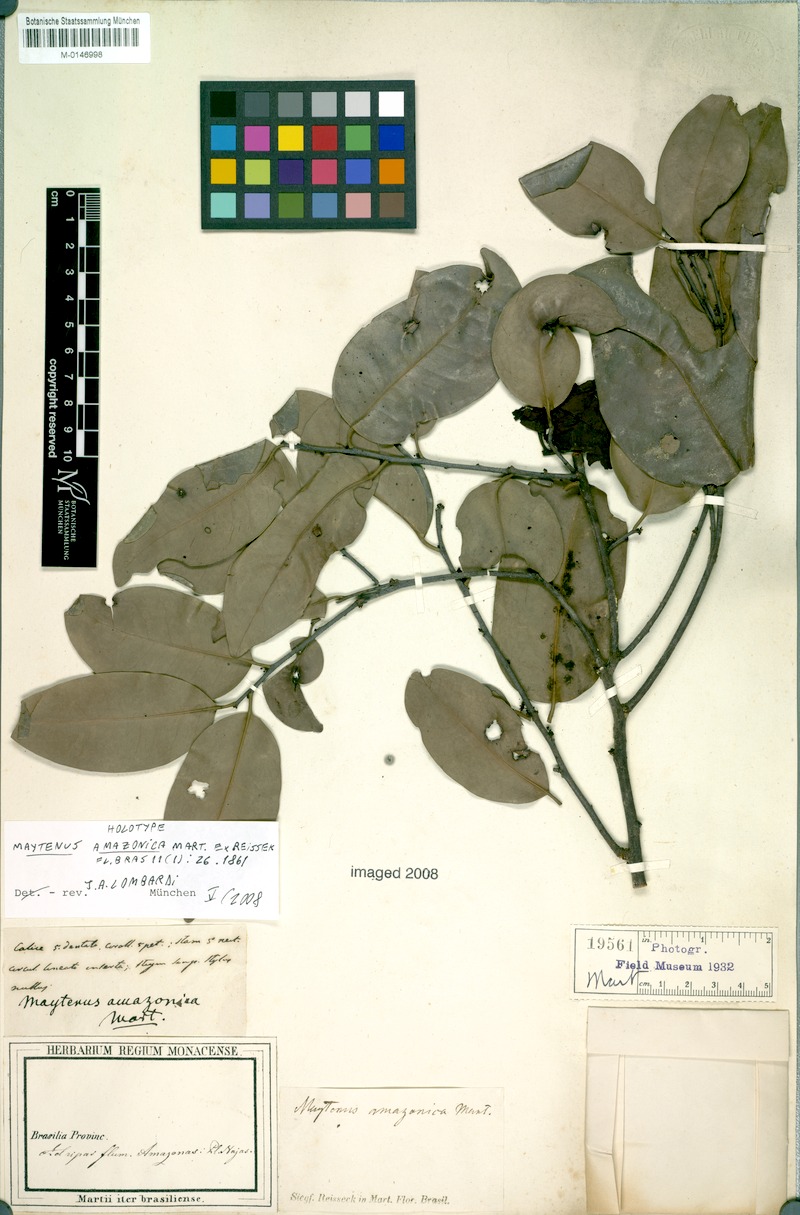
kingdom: Plantae
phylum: Tracheophyta
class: Magnoliopsida
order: Celastrales
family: Celastraceae
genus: Monteverdia
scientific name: Monteverdia amazonica
